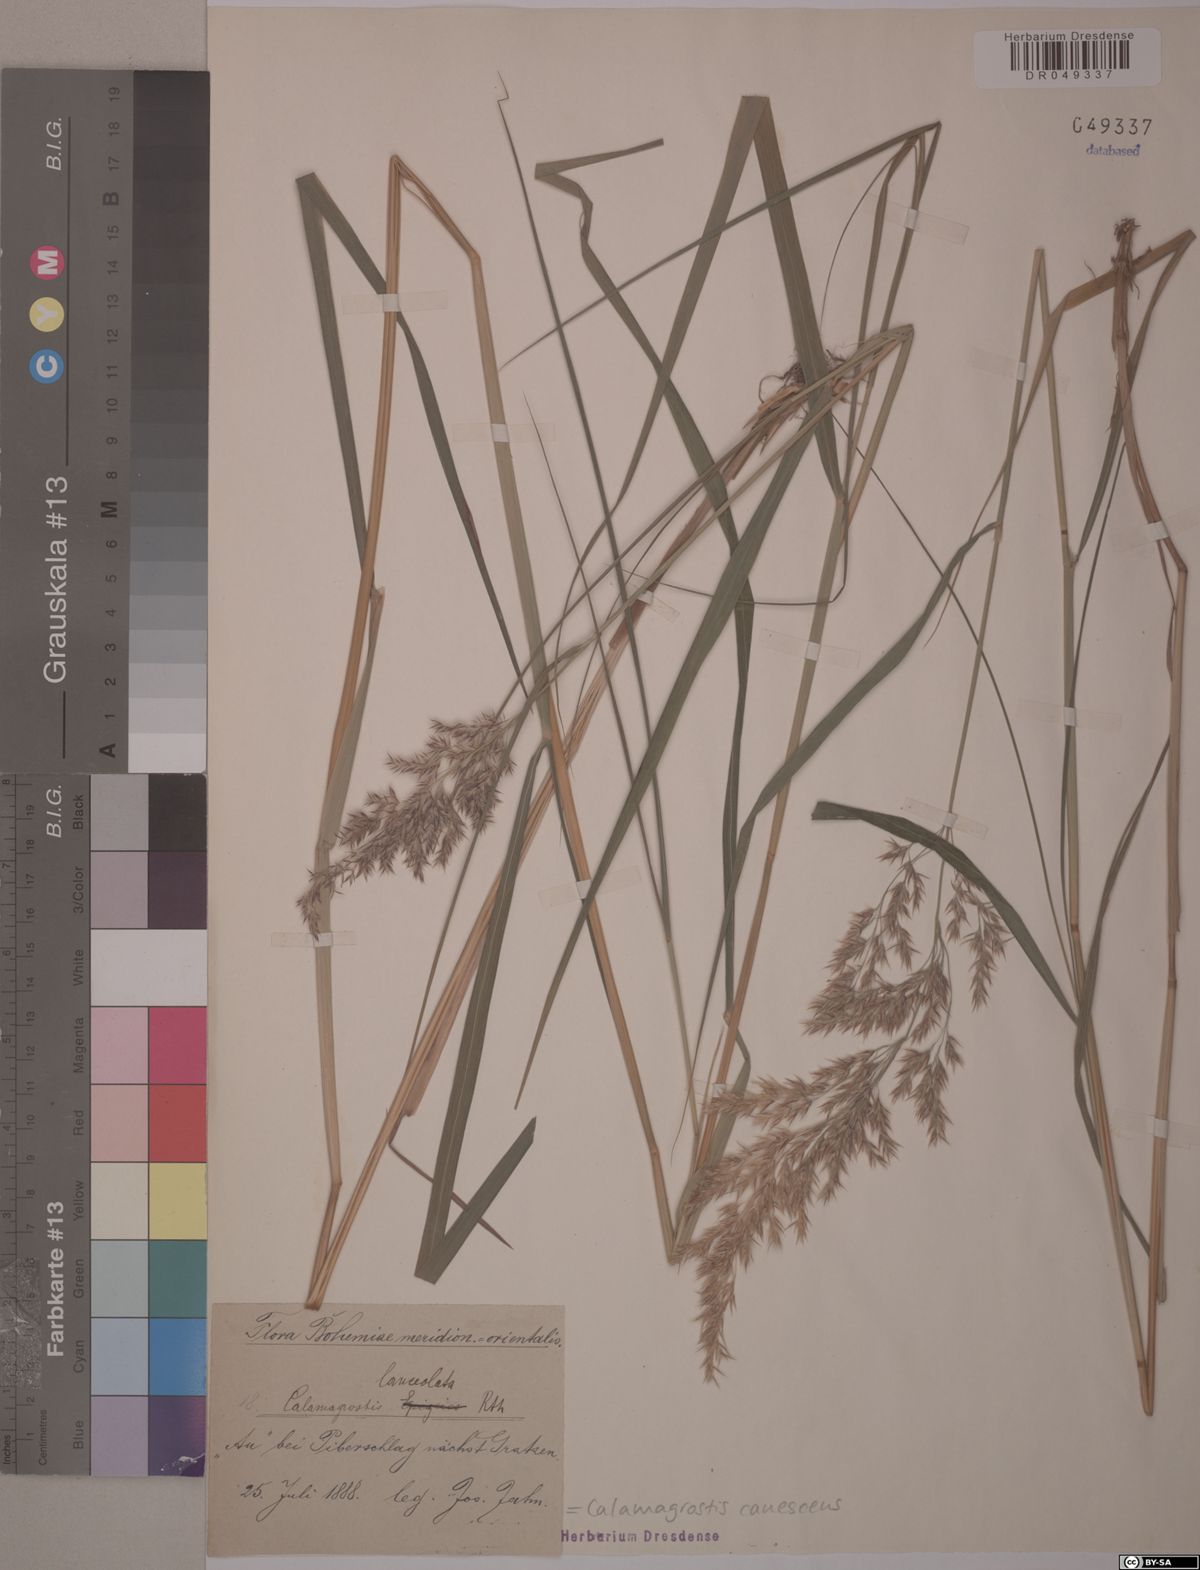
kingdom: Plantae
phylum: Tracheophyta
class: Liliopsida
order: Poales
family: Poaceae
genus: Calamagrostis
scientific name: Calamagrostis canescens
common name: Purple small-reed
